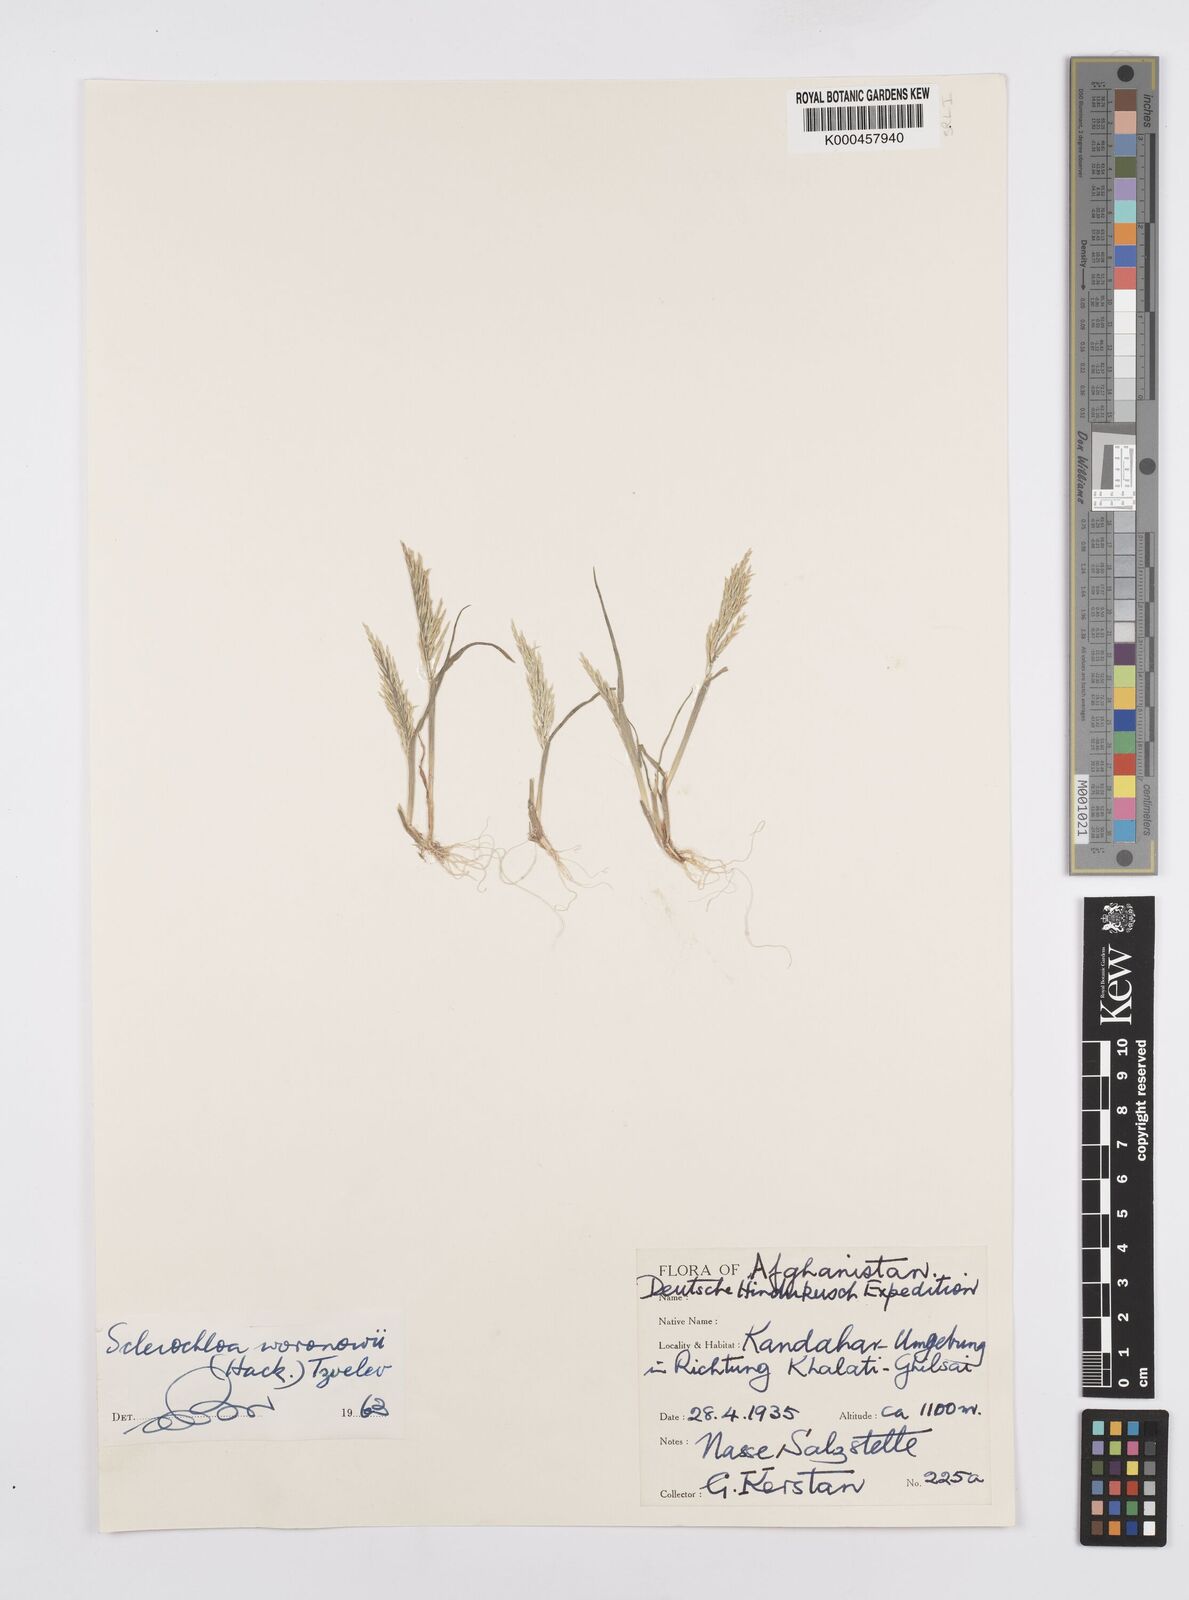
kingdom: Plantae
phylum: Tracheophyta
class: Liliopsida
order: Poales
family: Poaceae
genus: Sclerochloa
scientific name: Sclerochloa woronowii
